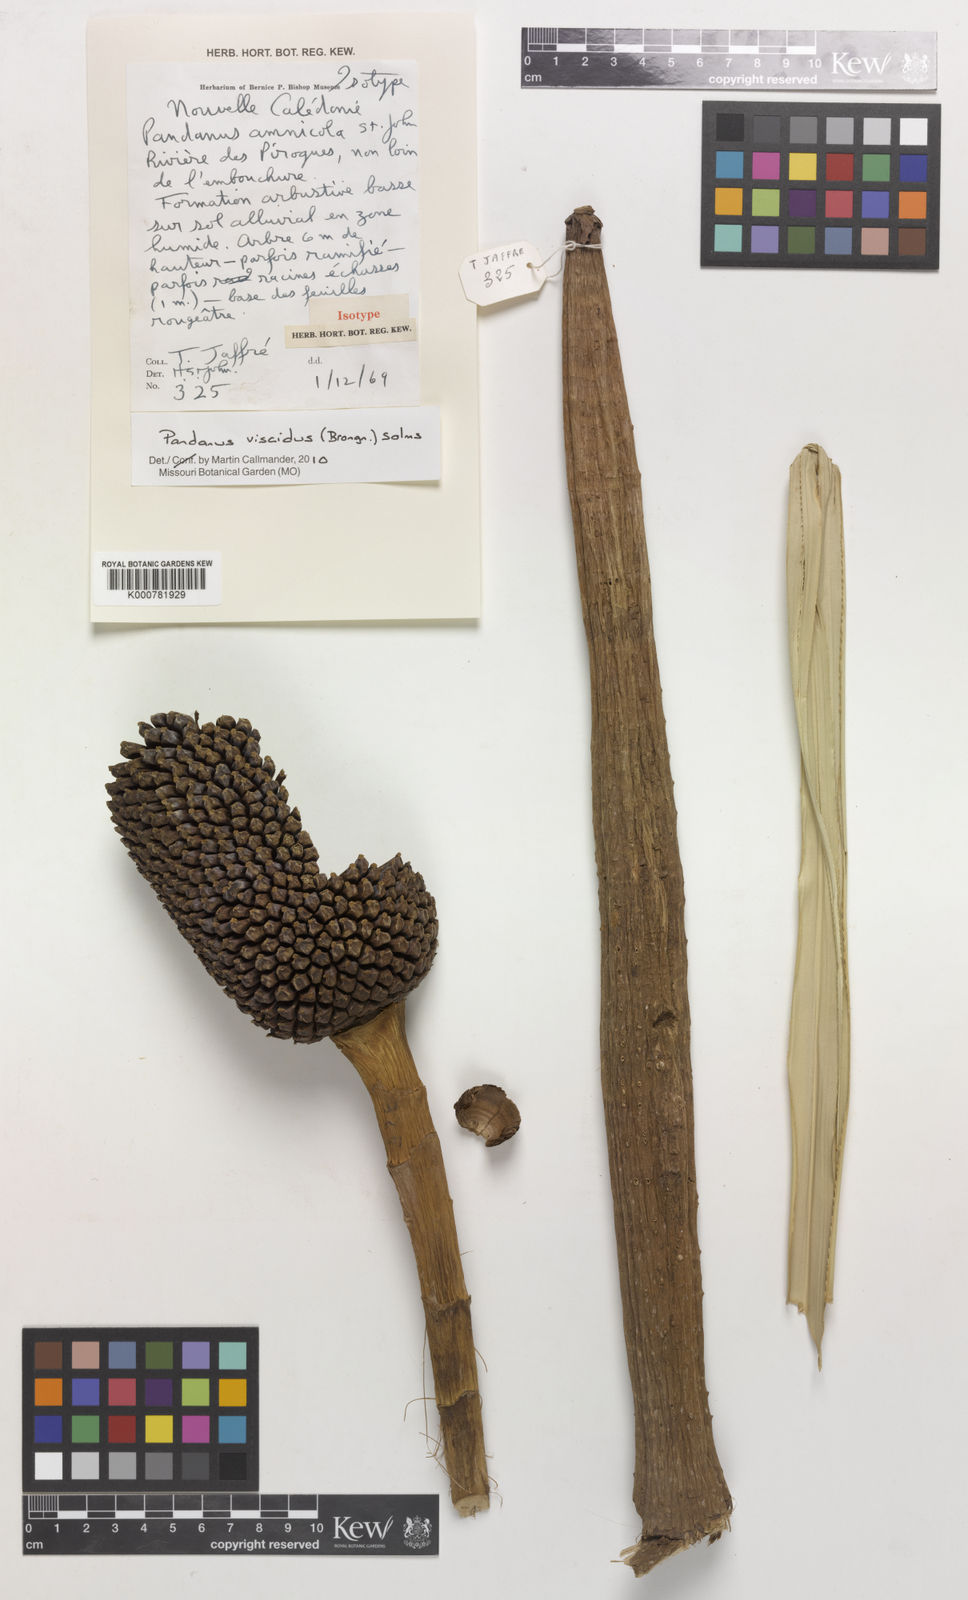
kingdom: Plantae
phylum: Tracheophyta
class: Liliopsida
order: Pandanales
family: Pandanaceae
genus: Pandanus
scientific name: Pandanus
